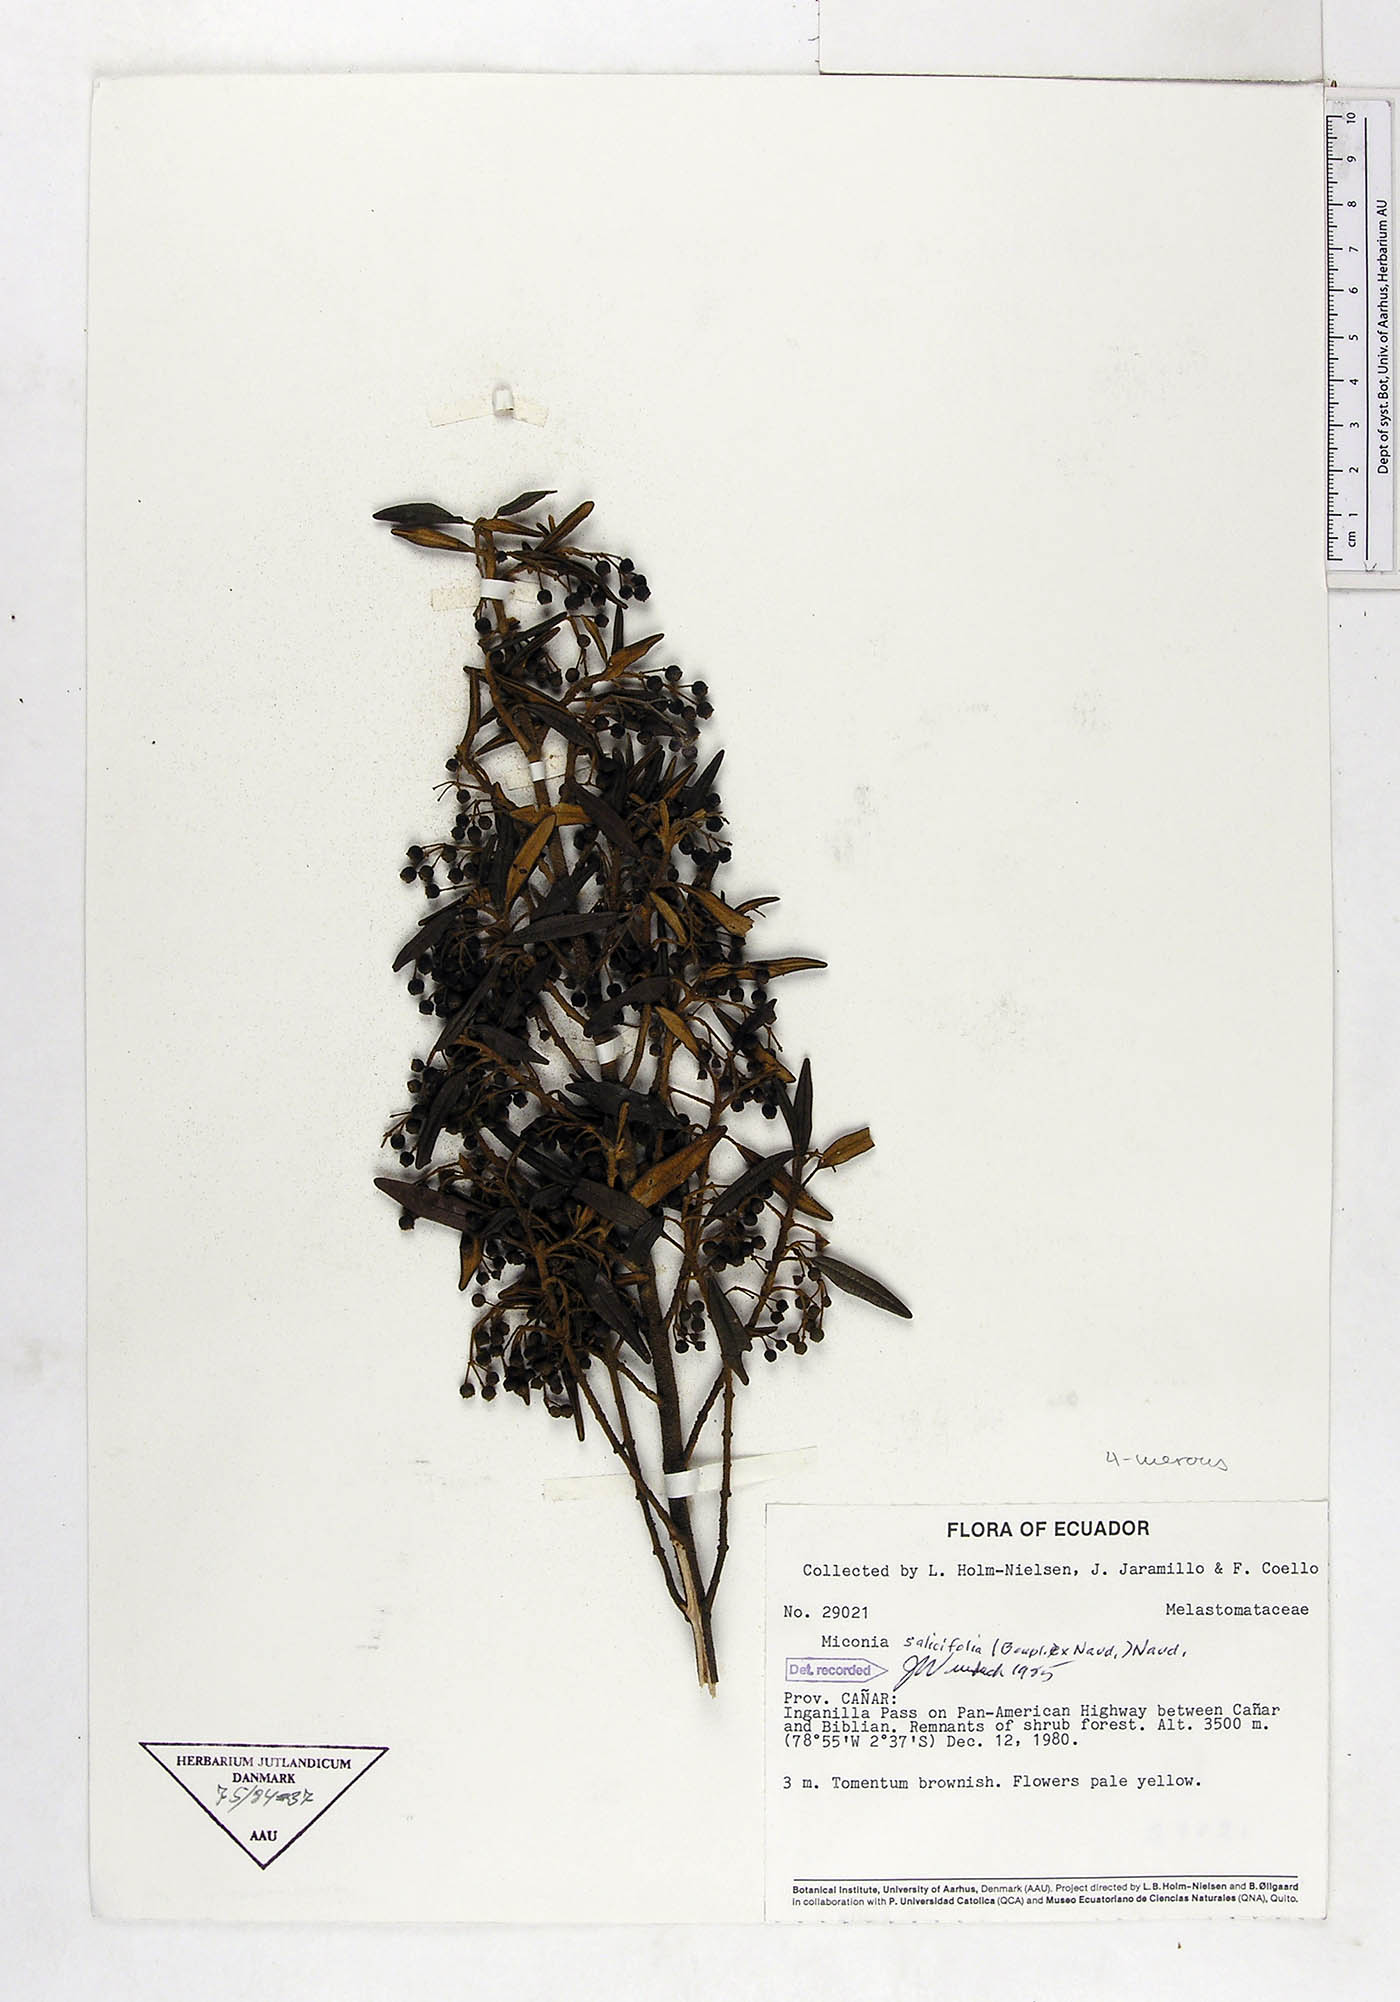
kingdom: Plantae
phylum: Tracheophyta
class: Magnoliopsida
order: Myrtales
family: Melastomataceae
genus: Miconia
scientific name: Miconia salicifolia
